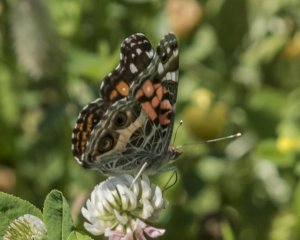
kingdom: Animalia
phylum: Arthropoda
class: Insecta
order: Lepidoptera
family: Nymphalidae
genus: Vanessa
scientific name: Vanessa virginiensis
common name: American Lady
